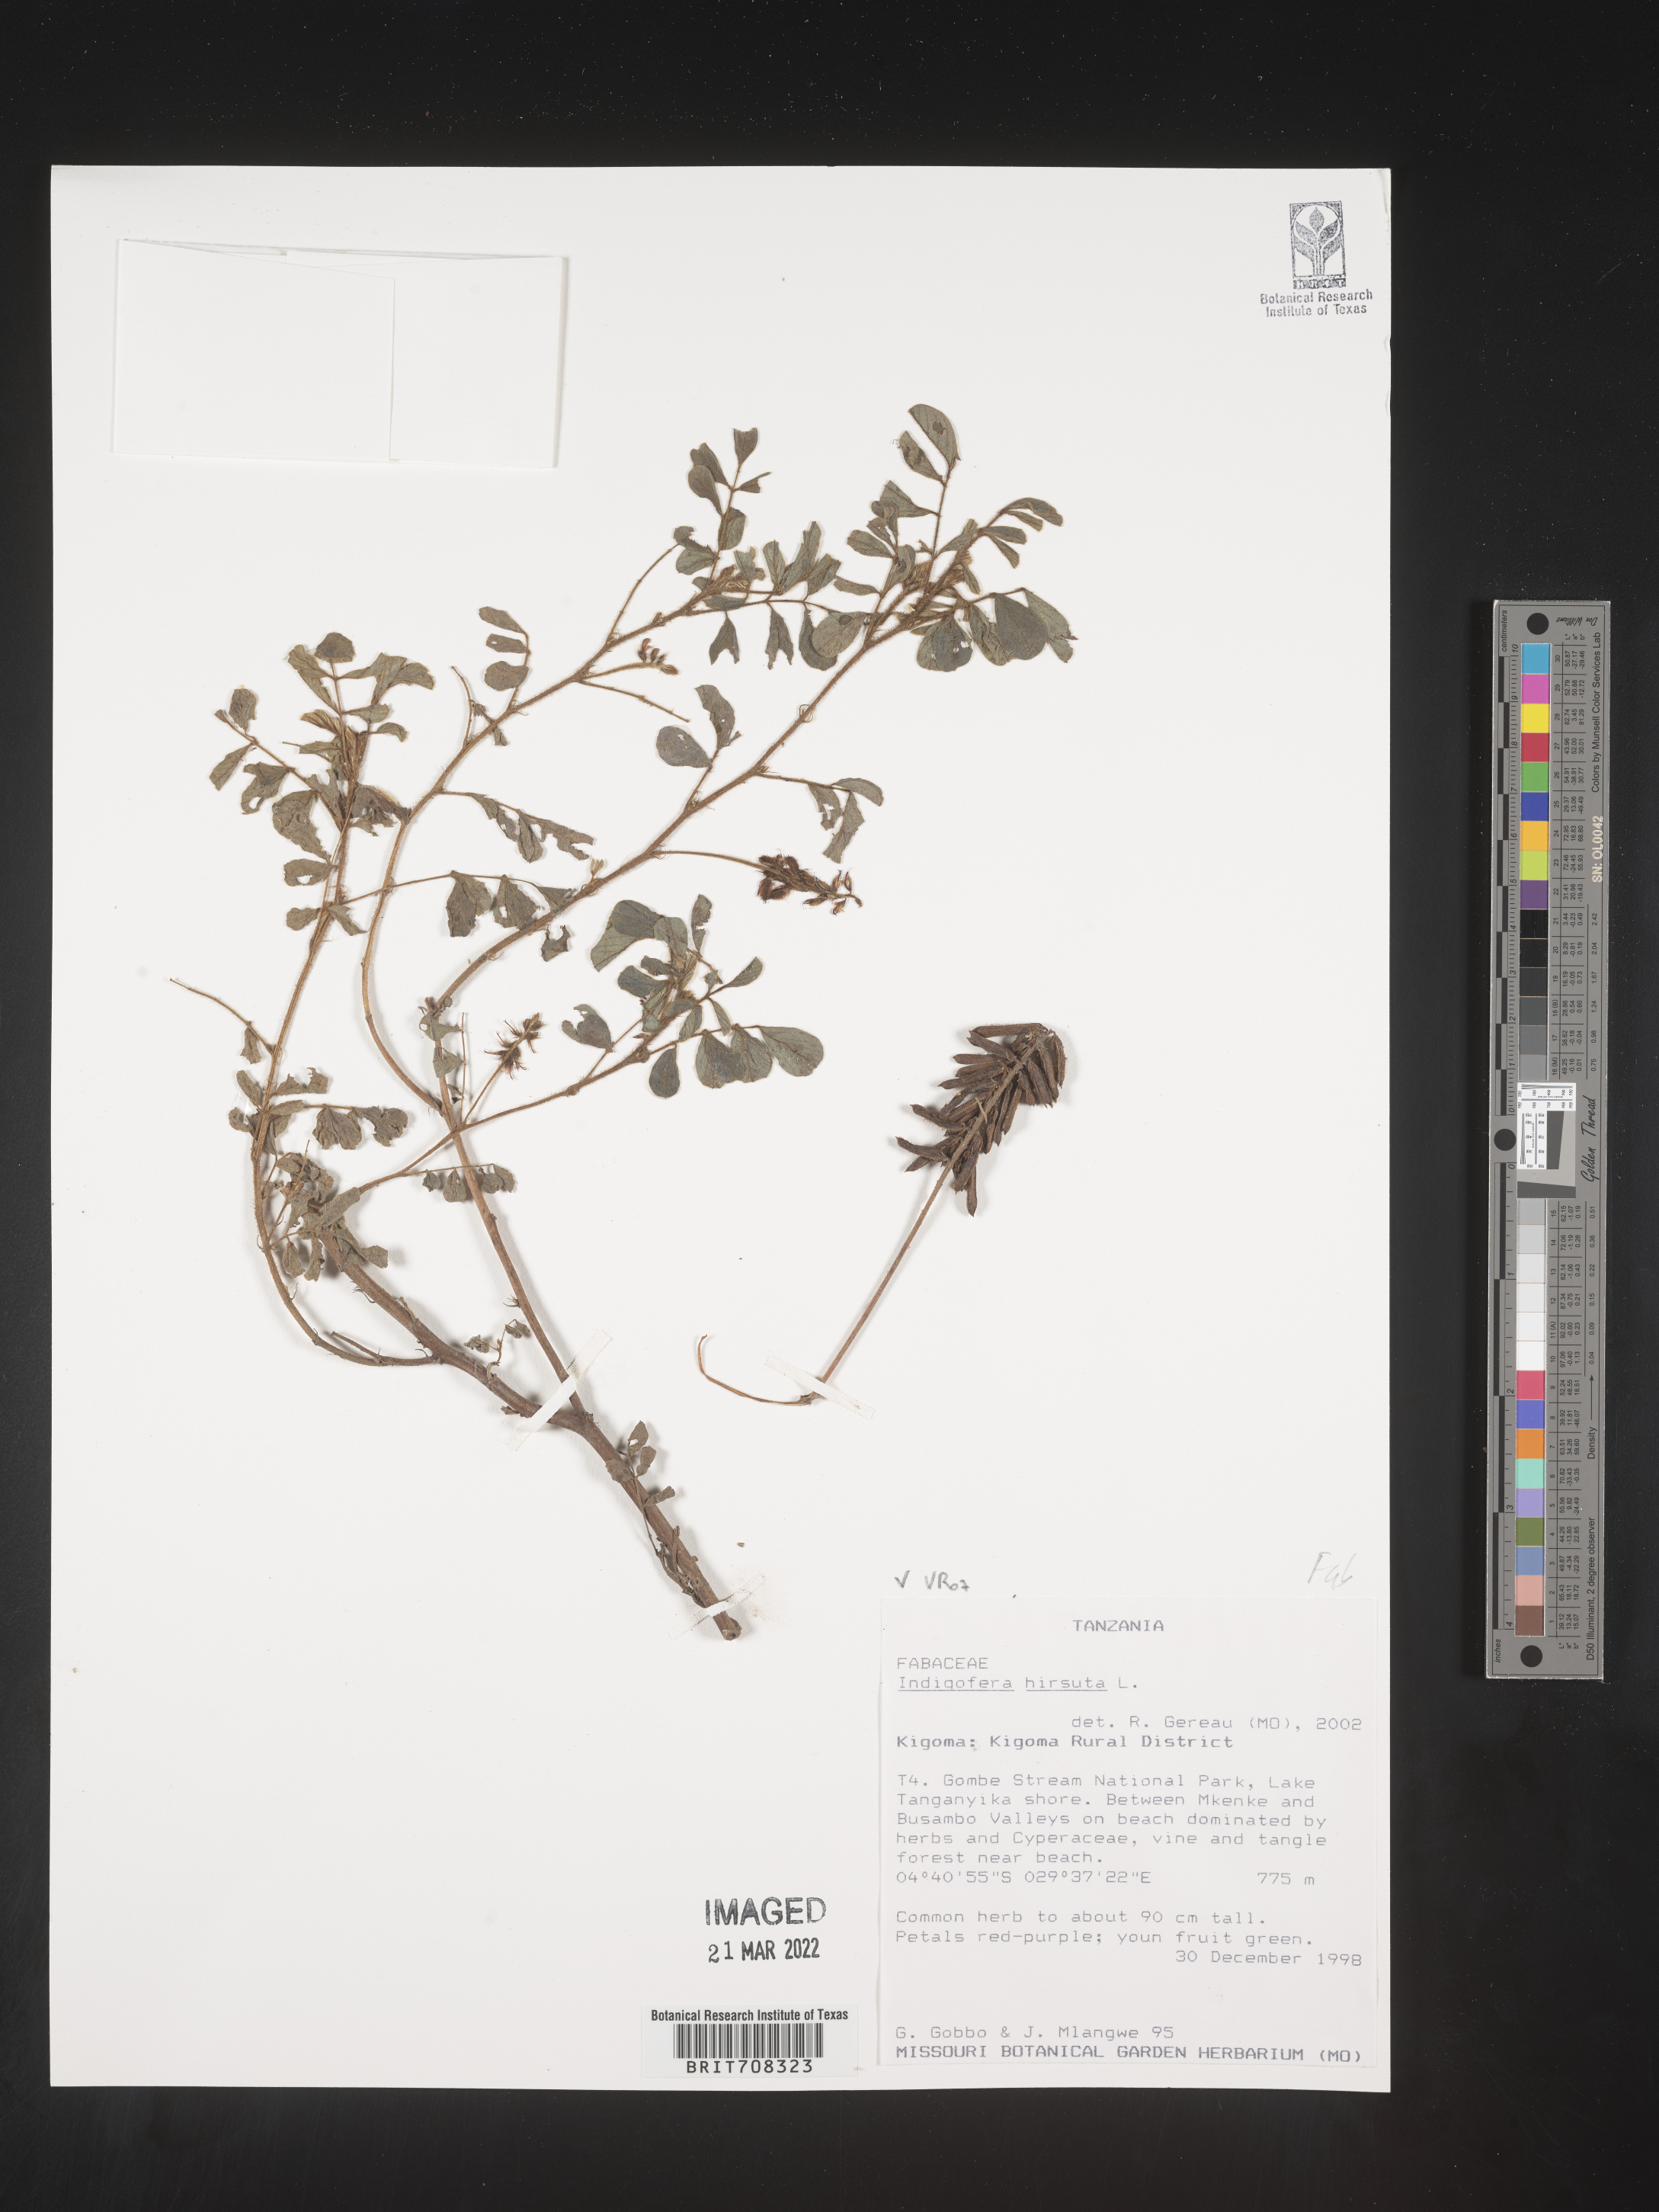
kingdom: Plantae
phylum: Tracheophyta
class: Magnoliopsida
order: Fabales
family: Fabaceae
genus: Indigofera
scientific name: Indigofera
